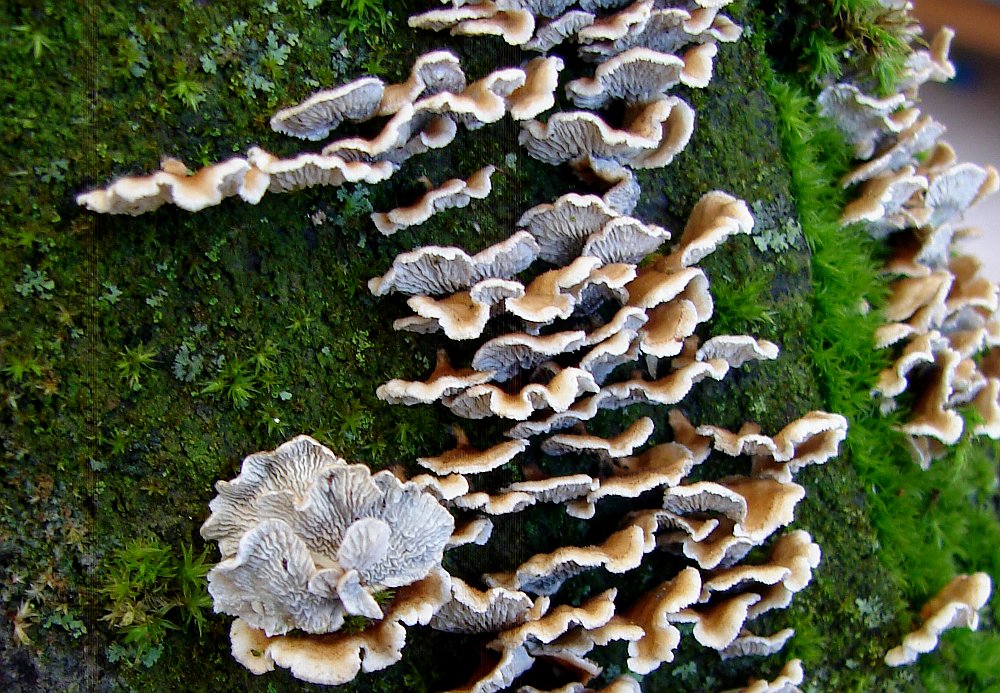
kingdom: Fungi
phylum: Basidiomycota
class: Agaricomycetes
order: Amylocorticiales
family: Amylocorticiaceae
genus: Plicaturopsis
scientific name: Plicaturopsis crispa
